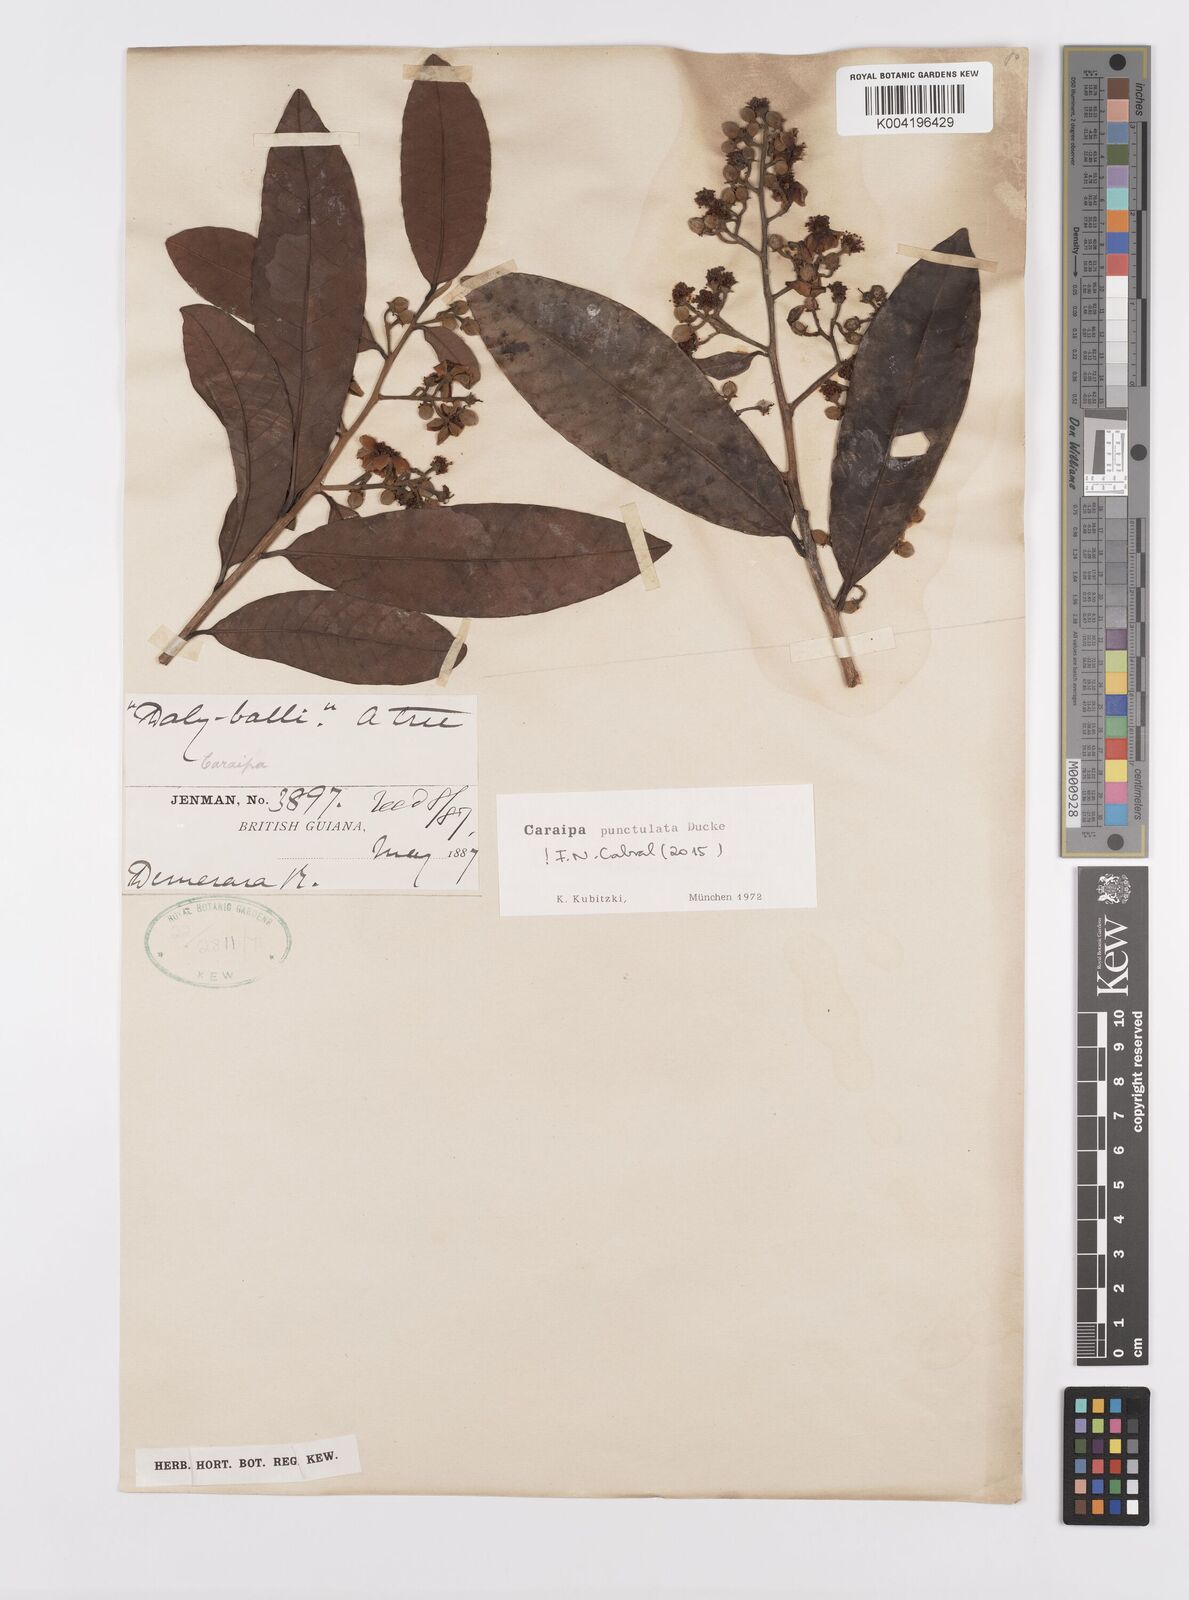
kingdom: Plantae
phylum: Tracheophyta
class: Magnoliopsida
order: Malpighiales
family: Calophyllaceae
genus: Caraipa
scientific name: Caraipa punctulata
